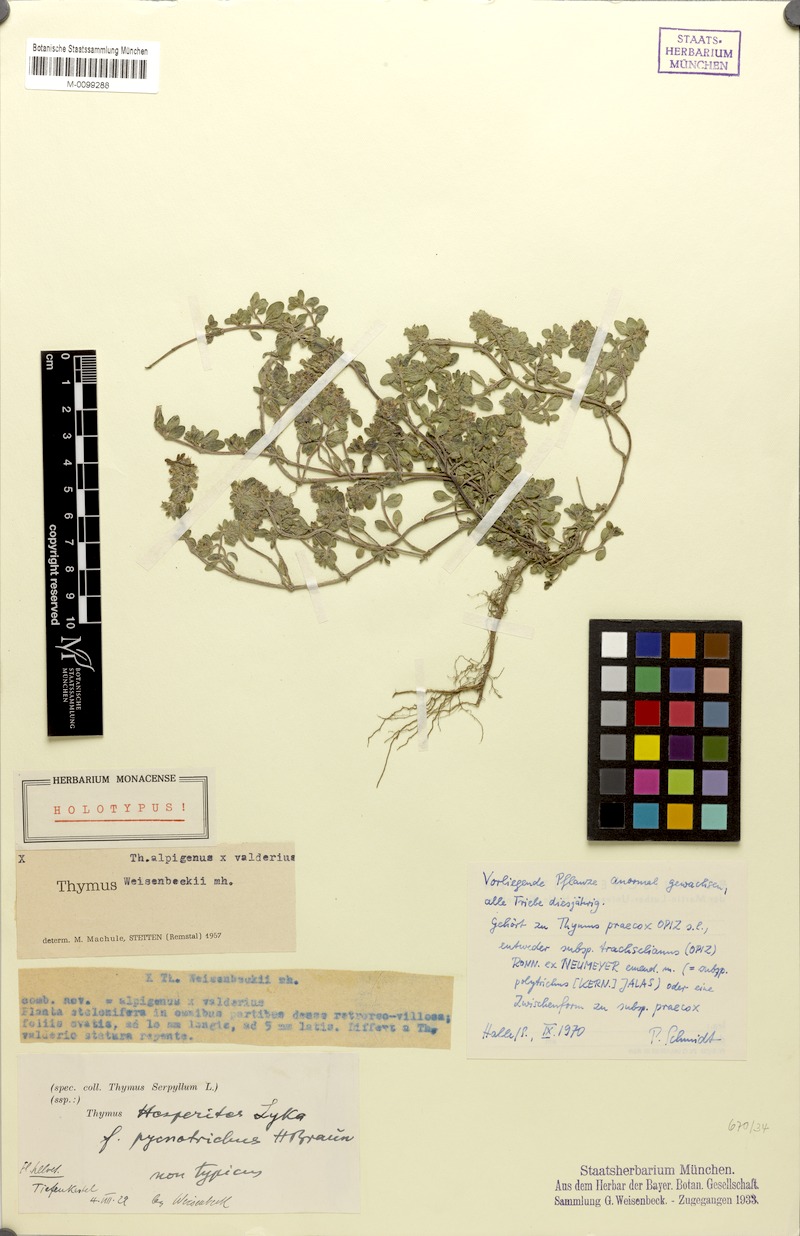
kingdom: Plantae
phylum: Tracheophyta
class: Magnoliopsida
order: Lamiales
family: Lamiaceae
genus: Thymus
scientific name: Thymus praecox
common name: Wild thyme
